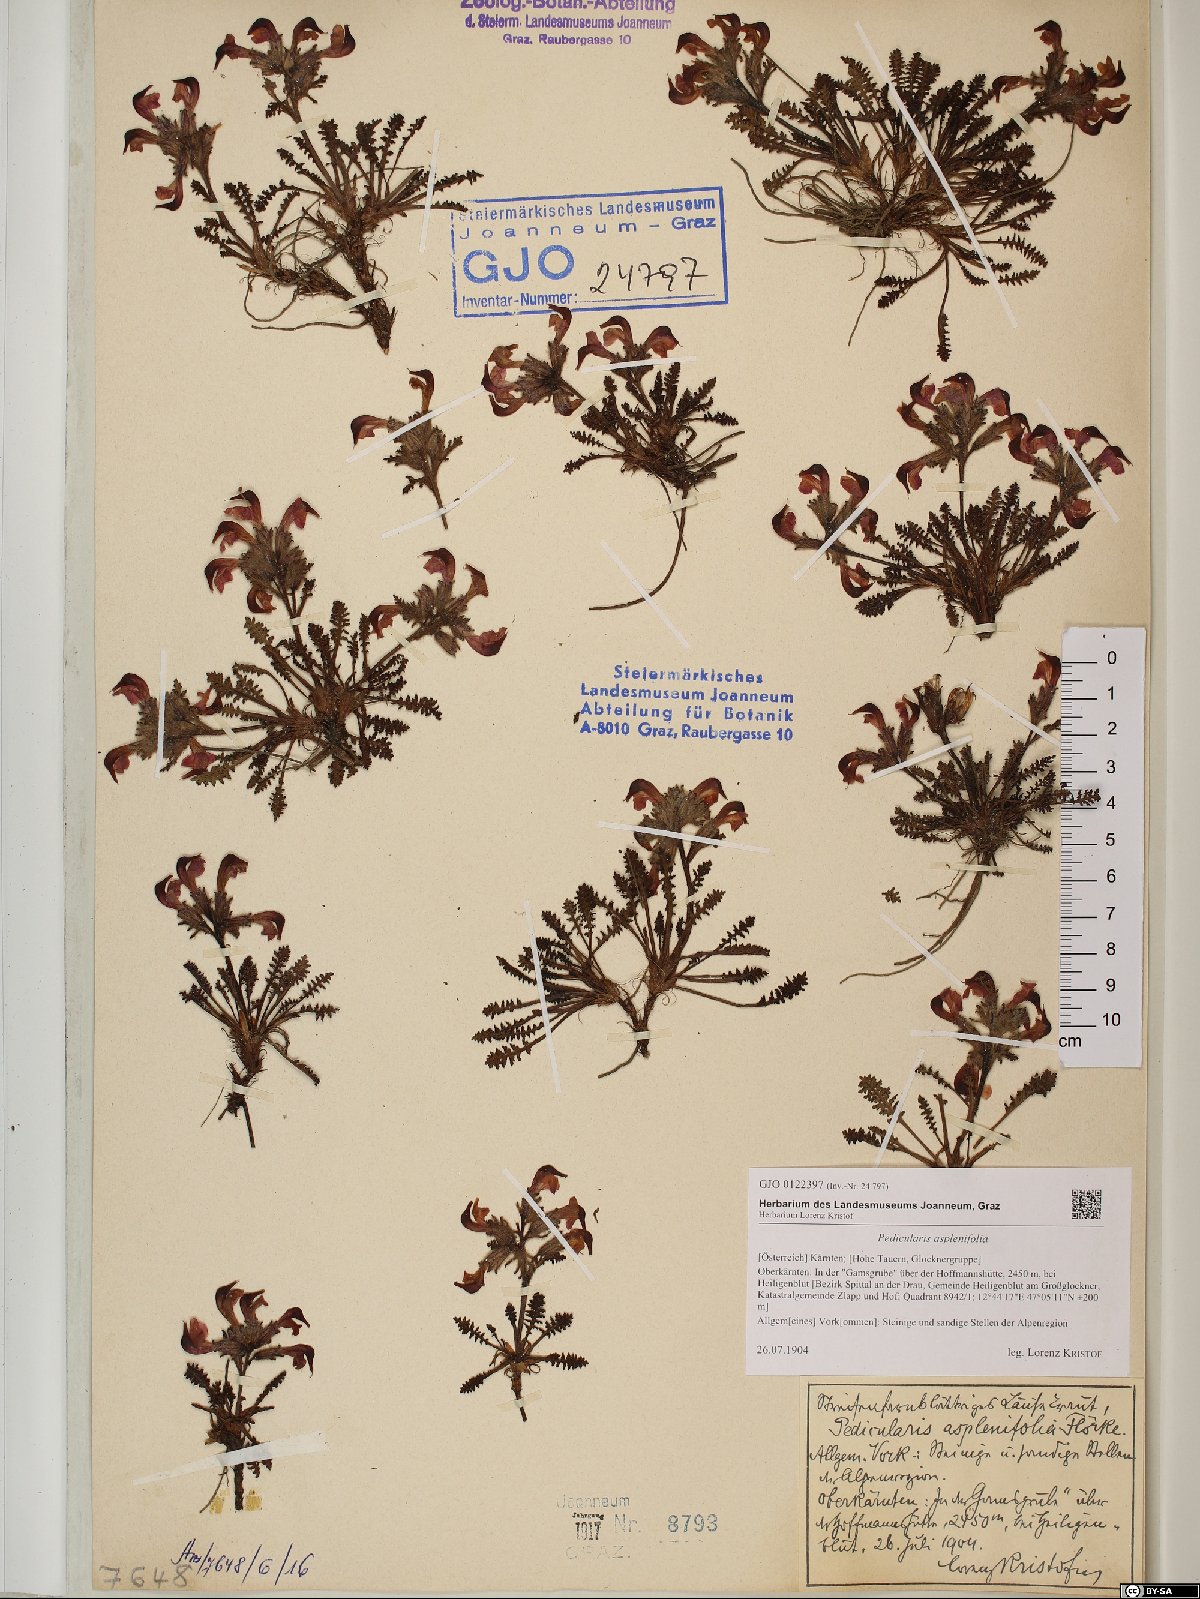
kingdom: Plantae
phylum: Tracheophyta
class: Magnoliopsida
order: Lamiales
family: Orobanchaceae
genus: Pedicularis
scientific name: Pedicularis asplenifolia
